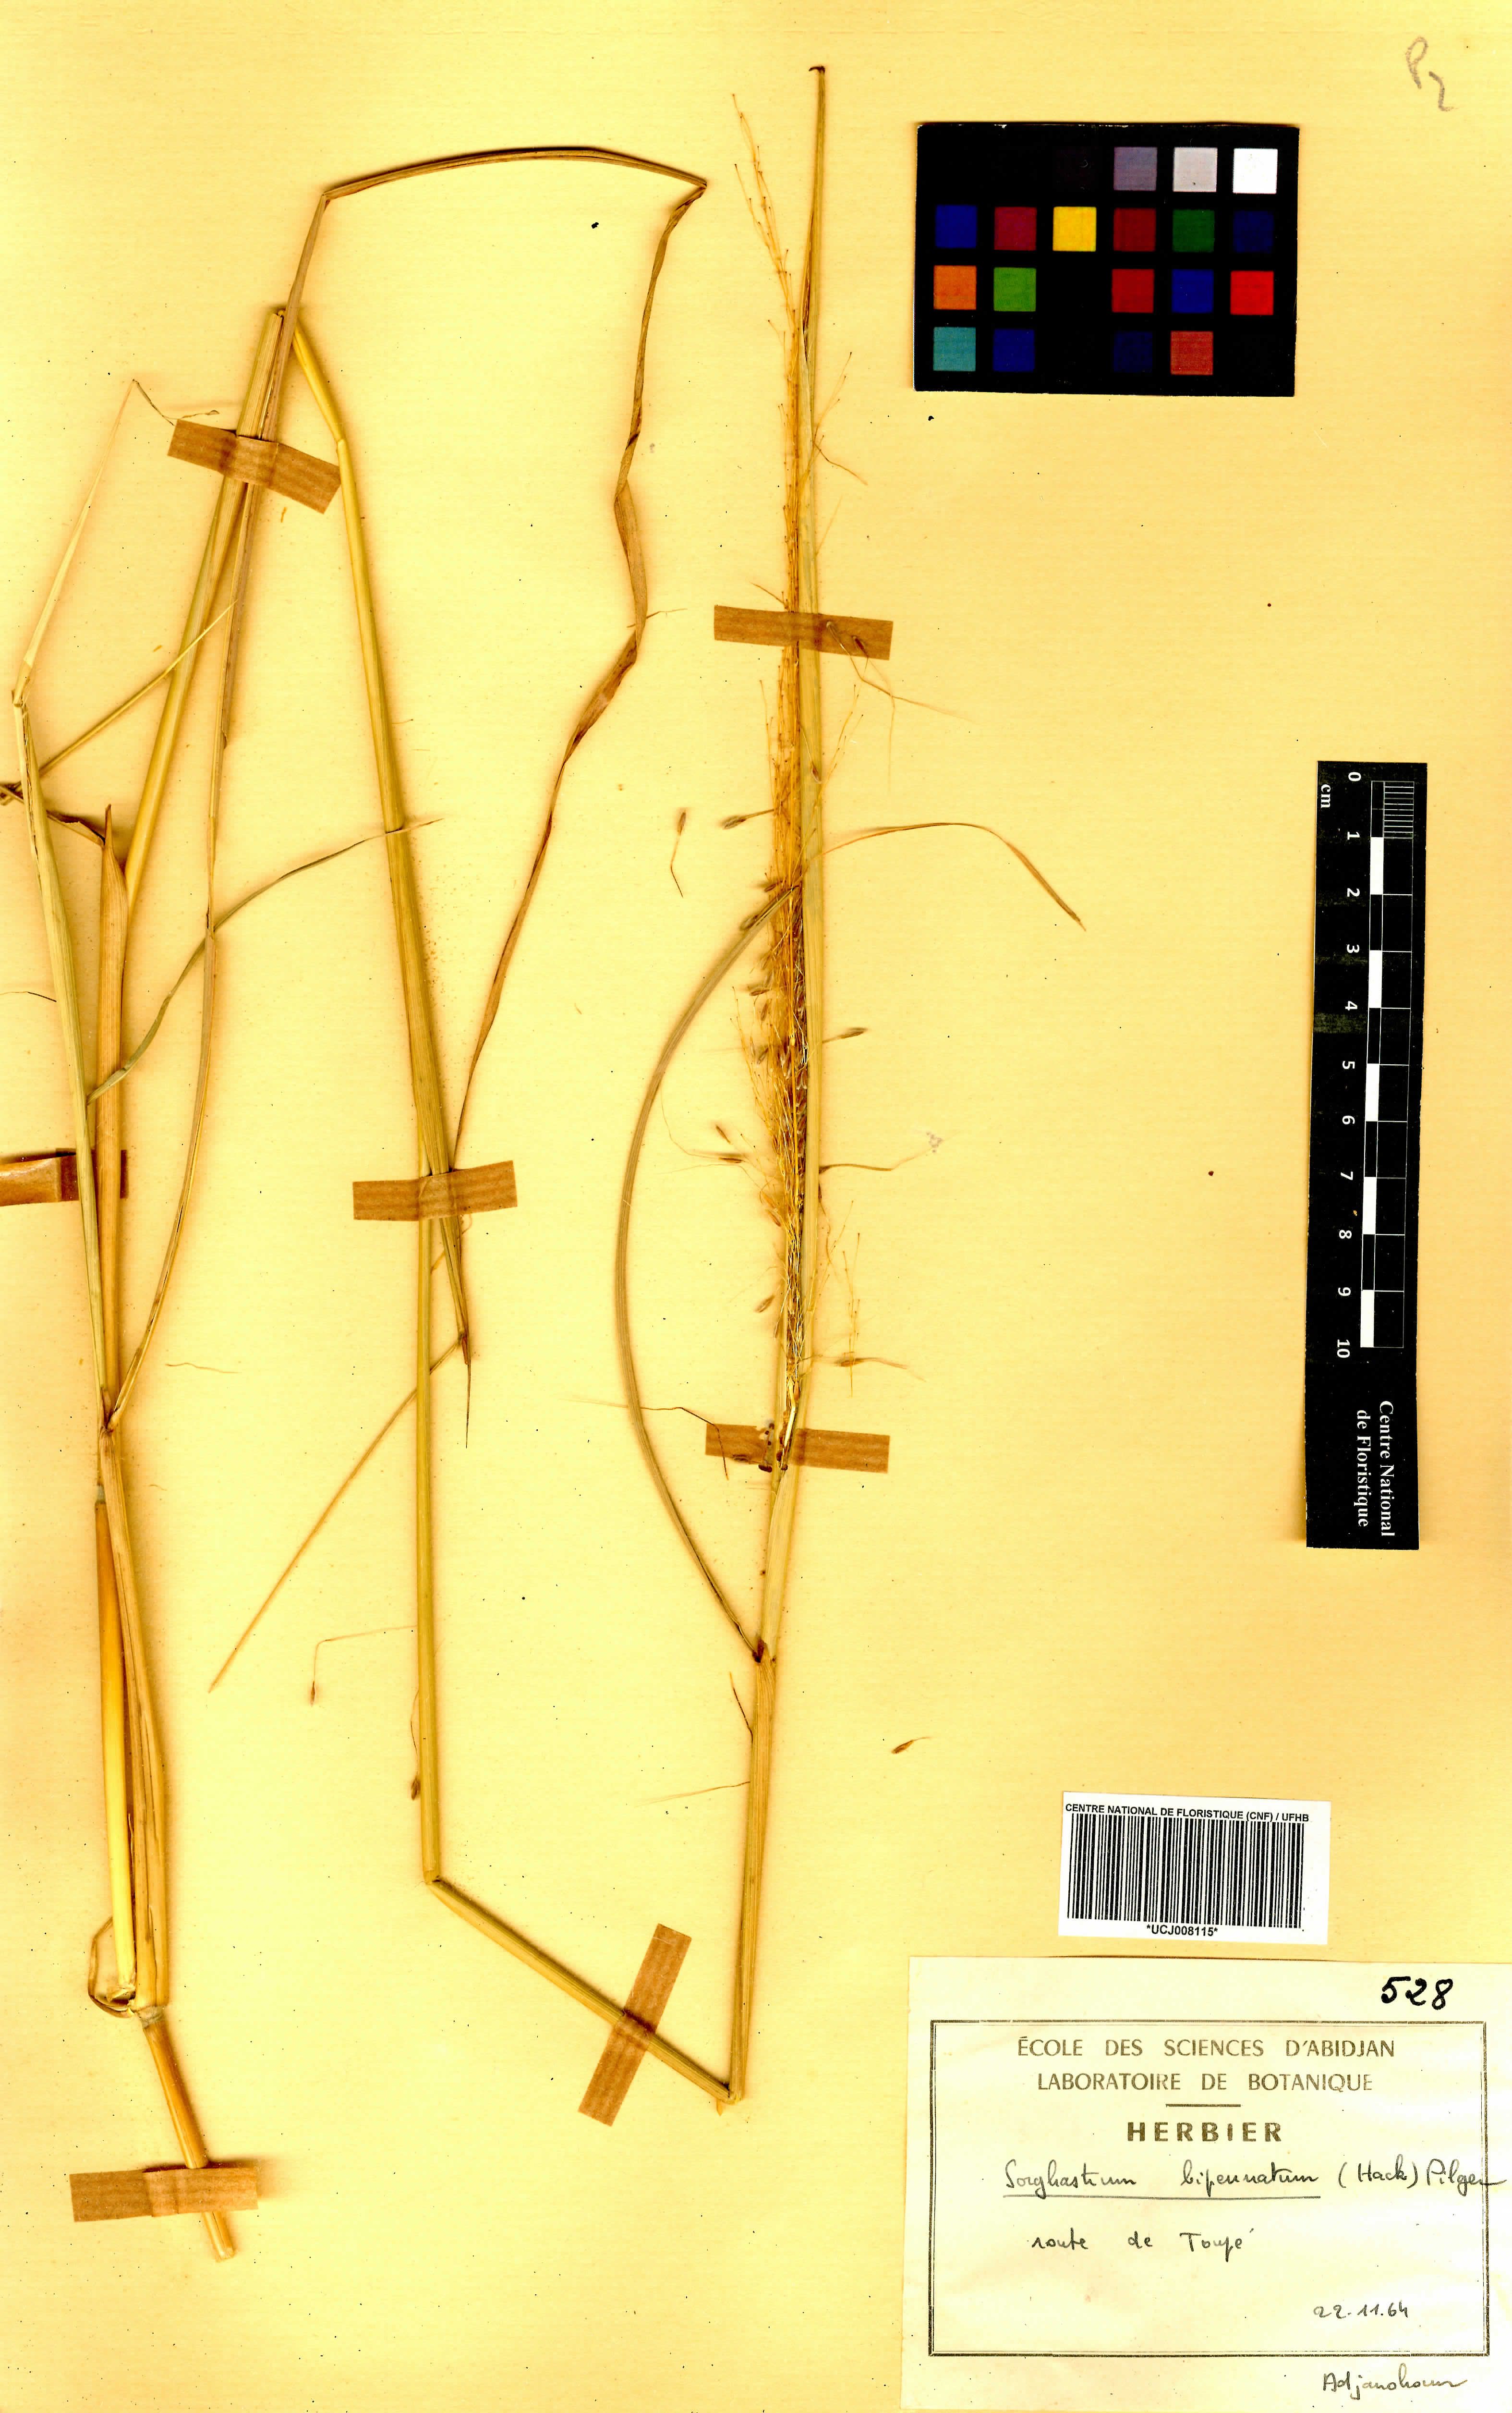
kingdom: Plantae
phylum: Tracheophyta
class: Liliopsida
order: Poales
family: Poaceae
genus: Sorghastrum
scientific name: Sorghastrum incompletum
